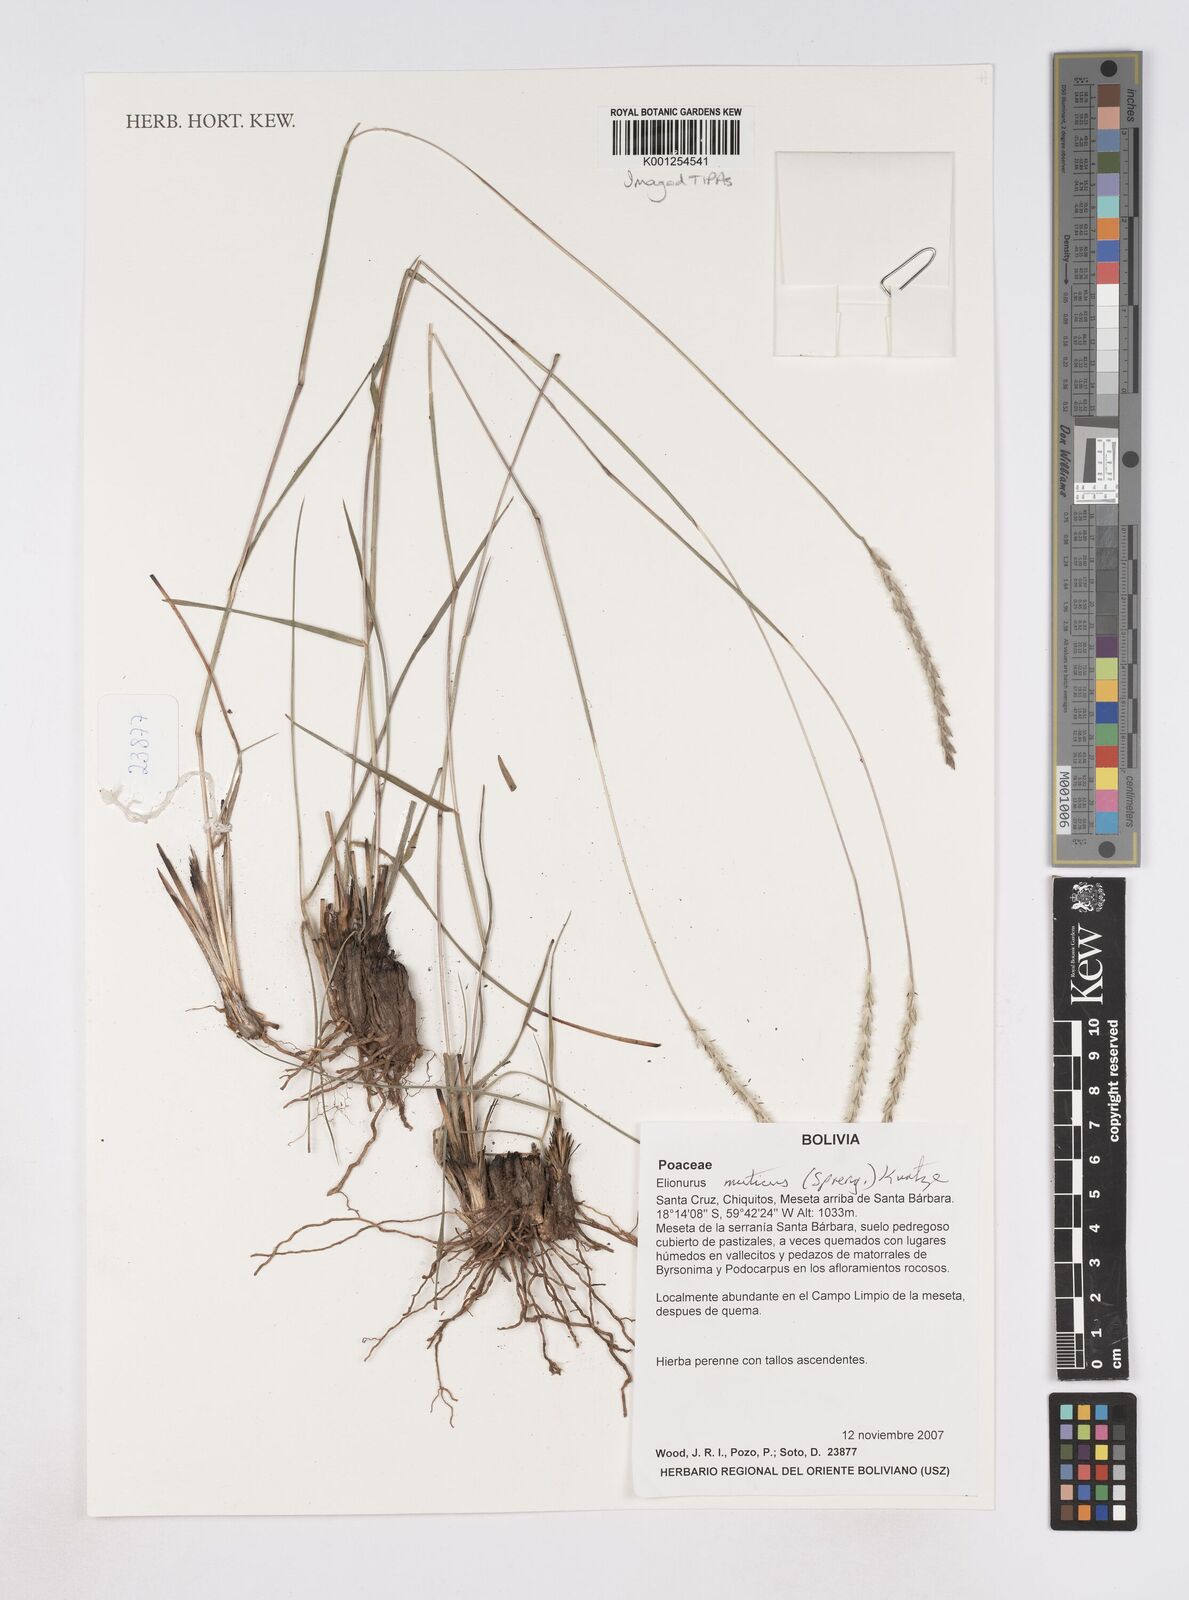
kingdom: Plantae
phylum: Tracheophyta
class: Liliopsida
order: Poales
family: Poaceae
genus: Elionurus
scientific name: Elionurus muticus
